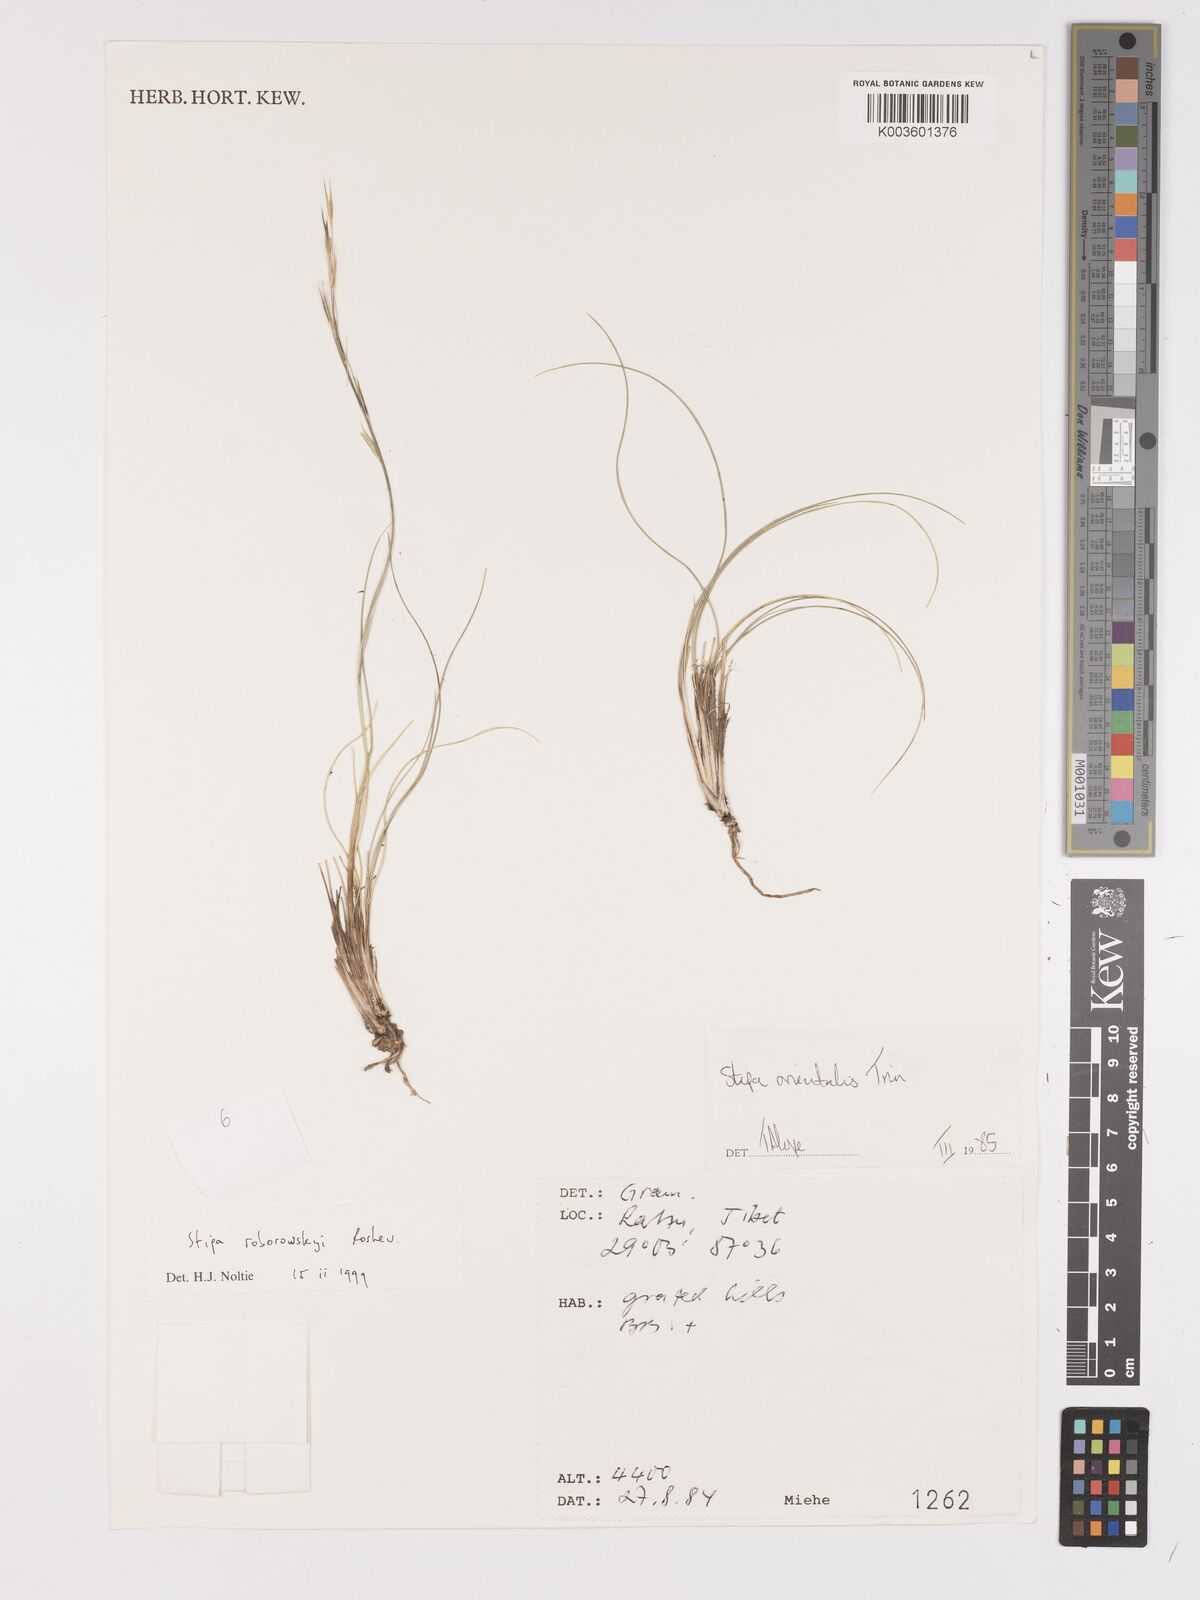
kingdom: Plantae
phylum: Tracheophyta
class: Liliopsida
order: Poales
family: Poaceae
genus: Stipa
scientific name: Stipa roborowskyi
